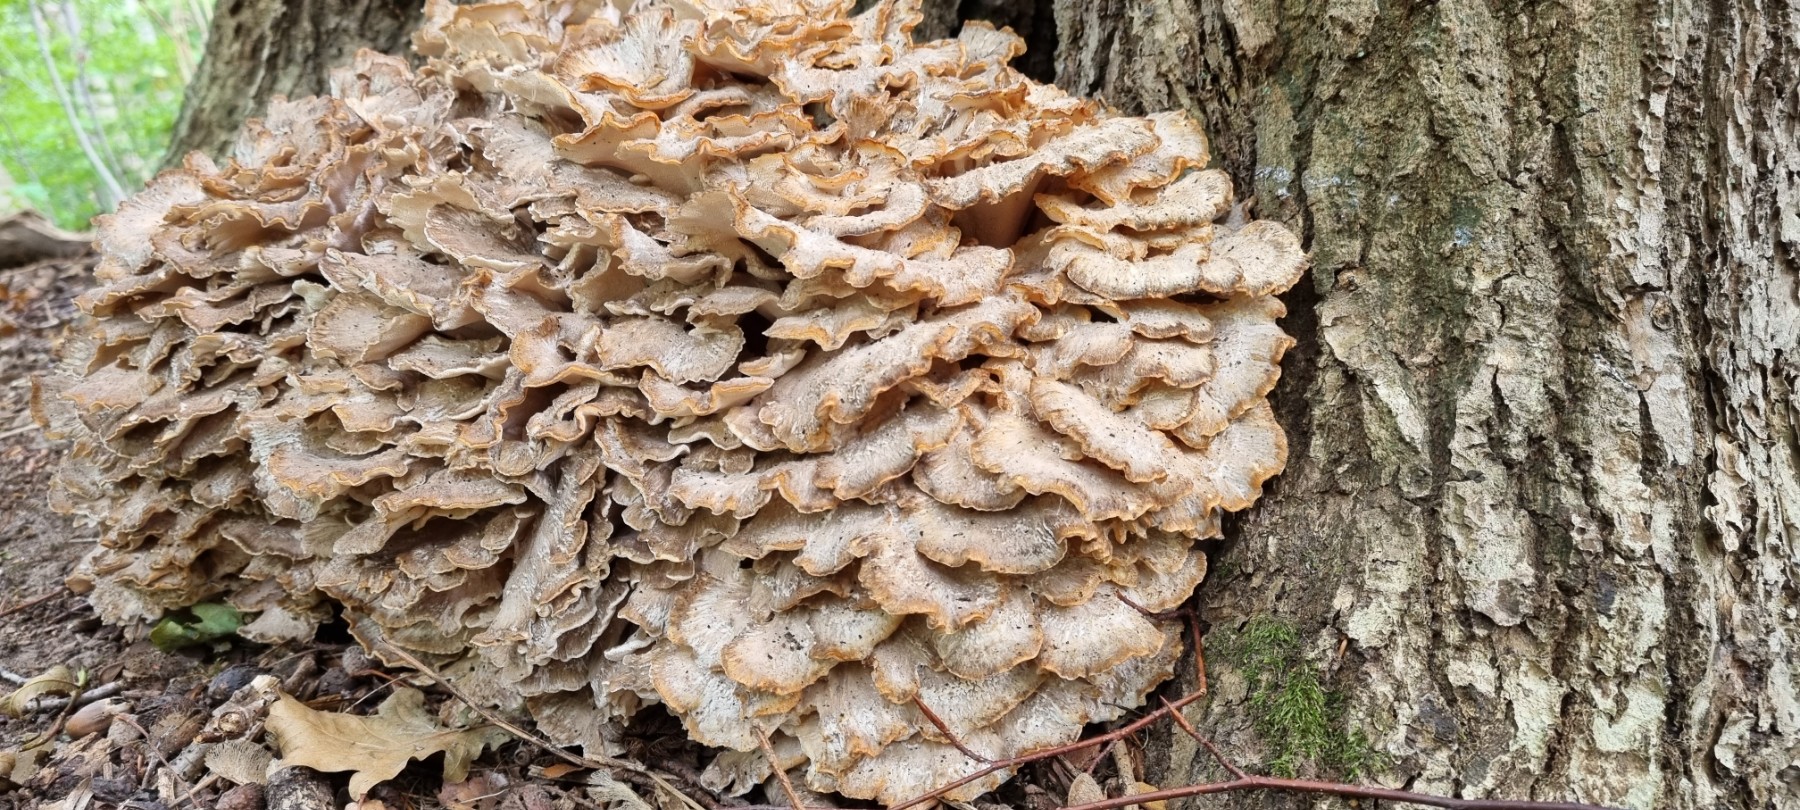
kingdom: Fungi
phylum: Basidiomycota
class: Agaricomycetes
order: Polyporales
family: Grifolaceae
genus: Grifola
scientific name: Grifola frondosa
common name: tueporesvamp
